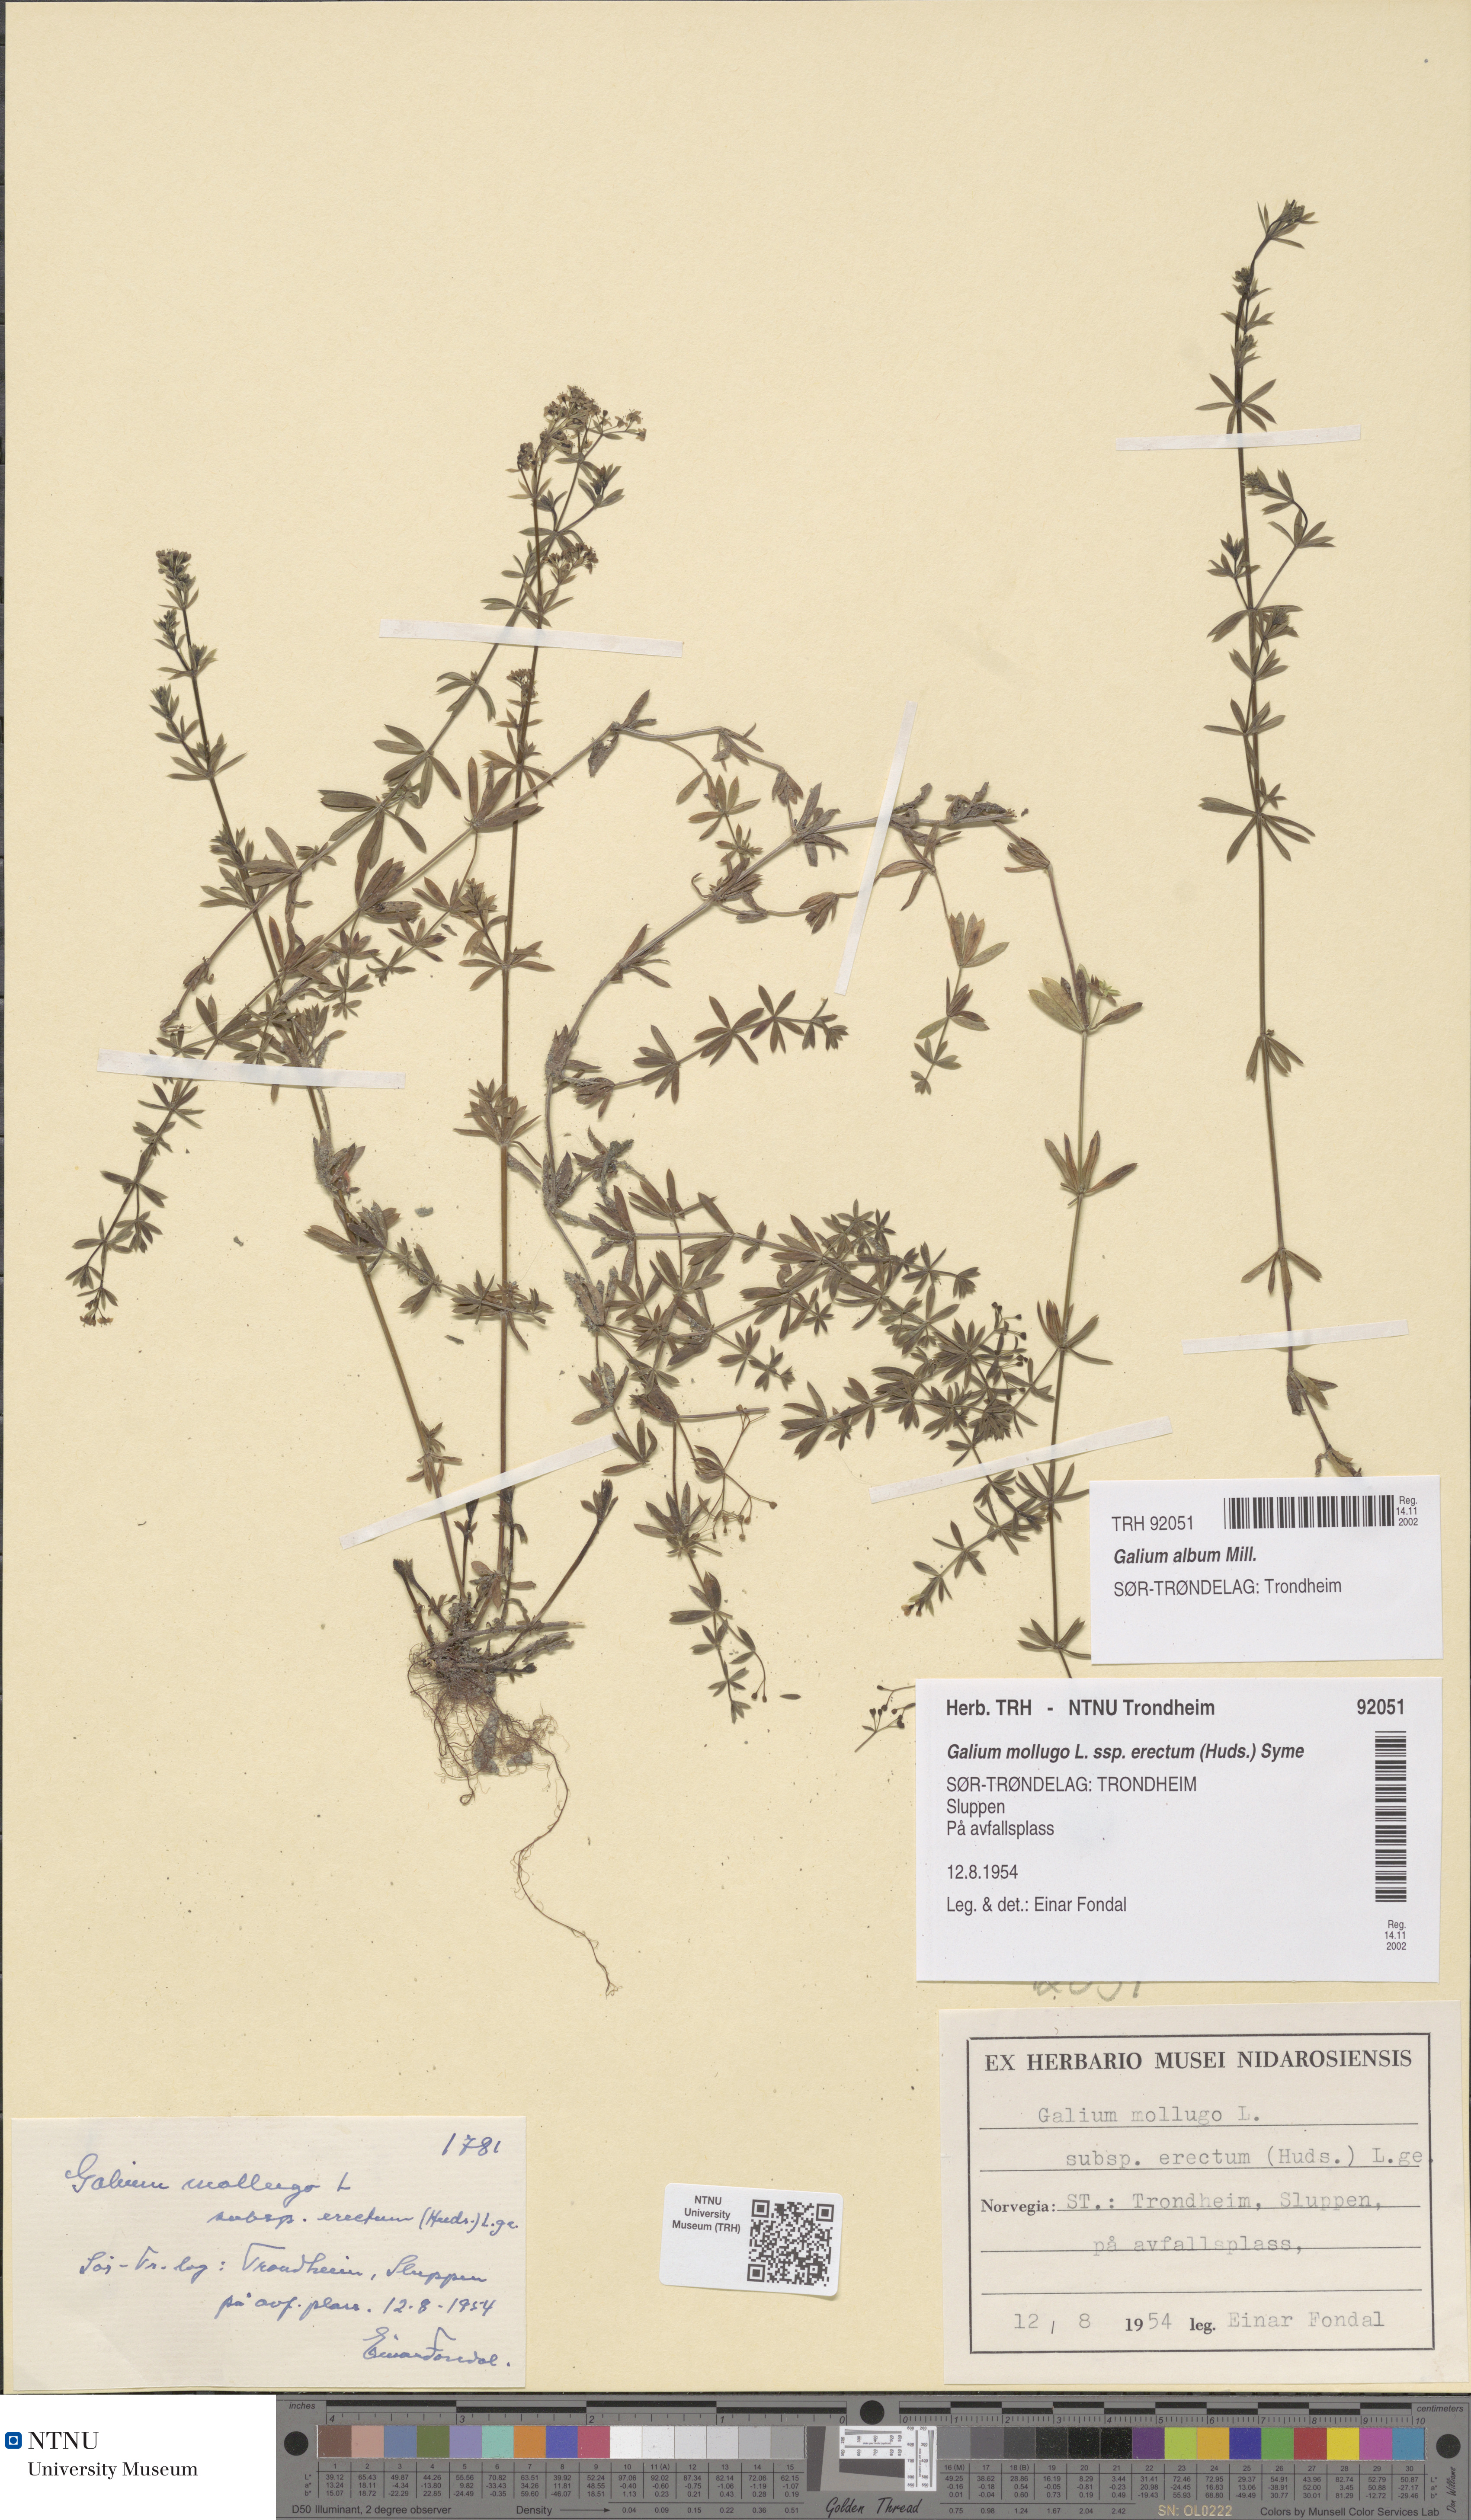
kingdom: Plantae
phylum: Tracheophyta
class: Magnoliopsida
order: Gentianales
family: Rubiaceae
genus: Galium
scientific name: Galium album
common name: White bedstraw
